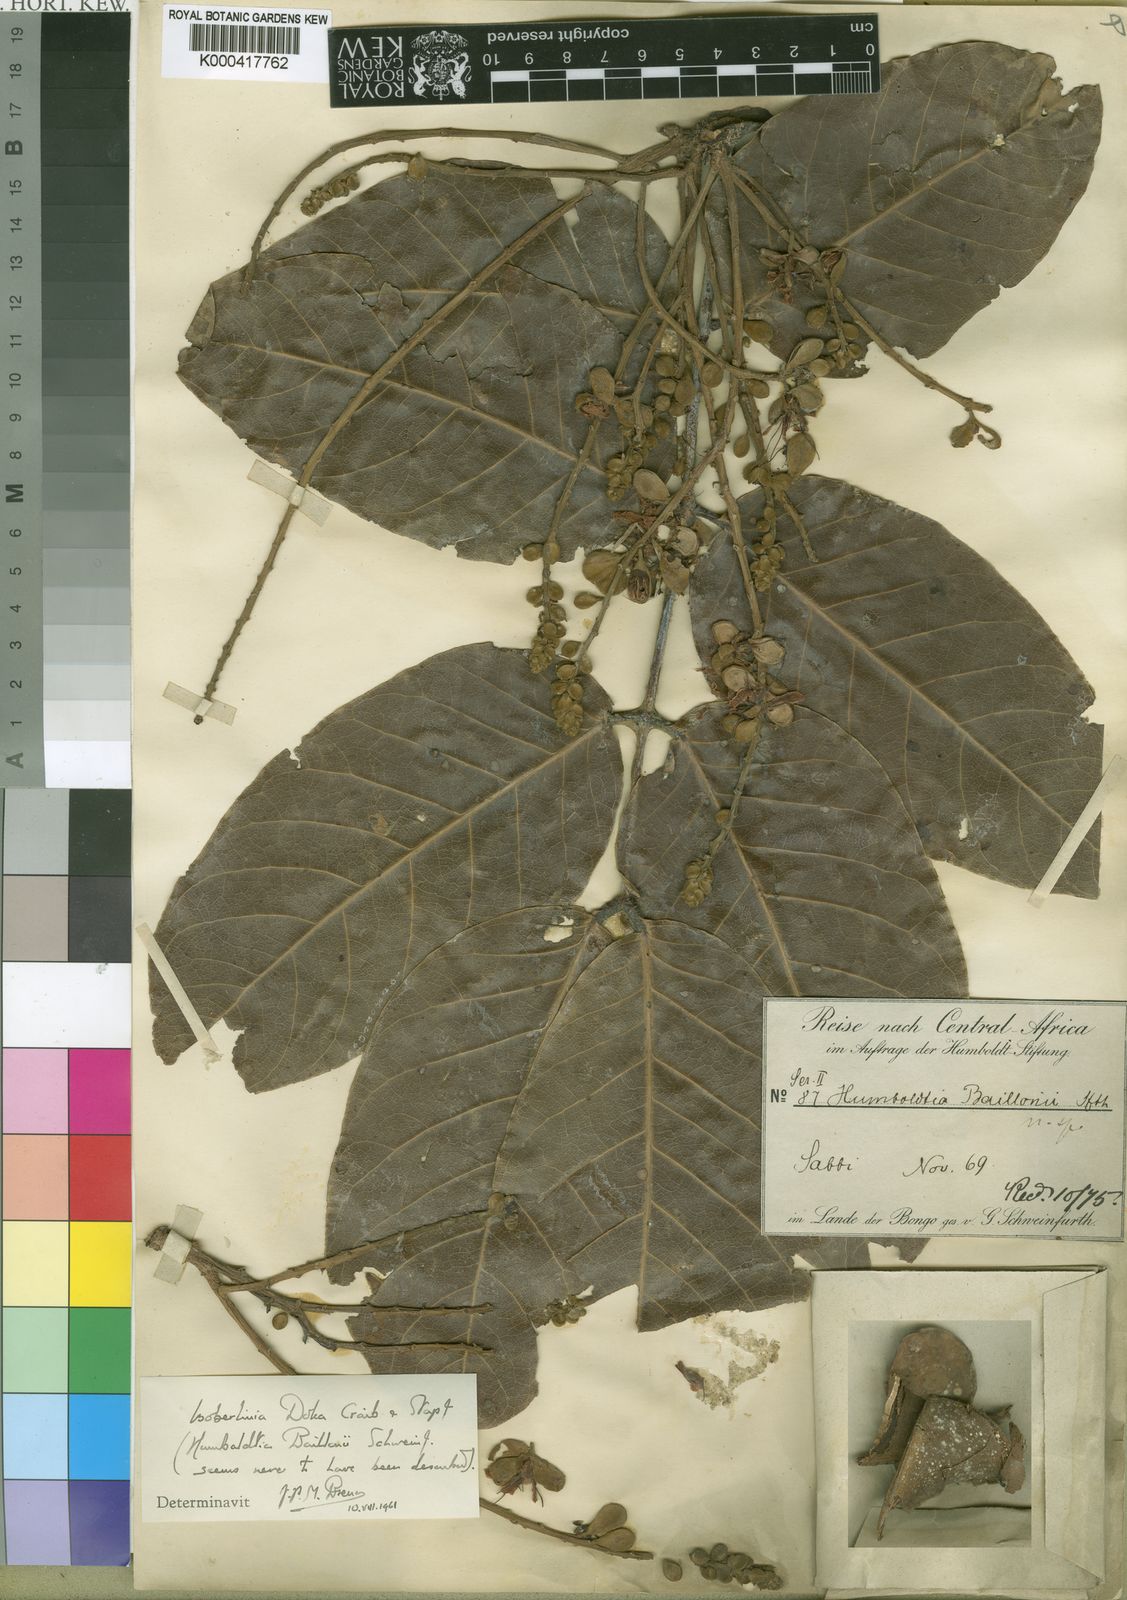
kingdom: Plantae
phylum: Tracheophyta
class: Magnoliopsida
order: Fabales
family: Fabaceae
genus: Isoberlinia
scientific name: Isoberlinia doka
